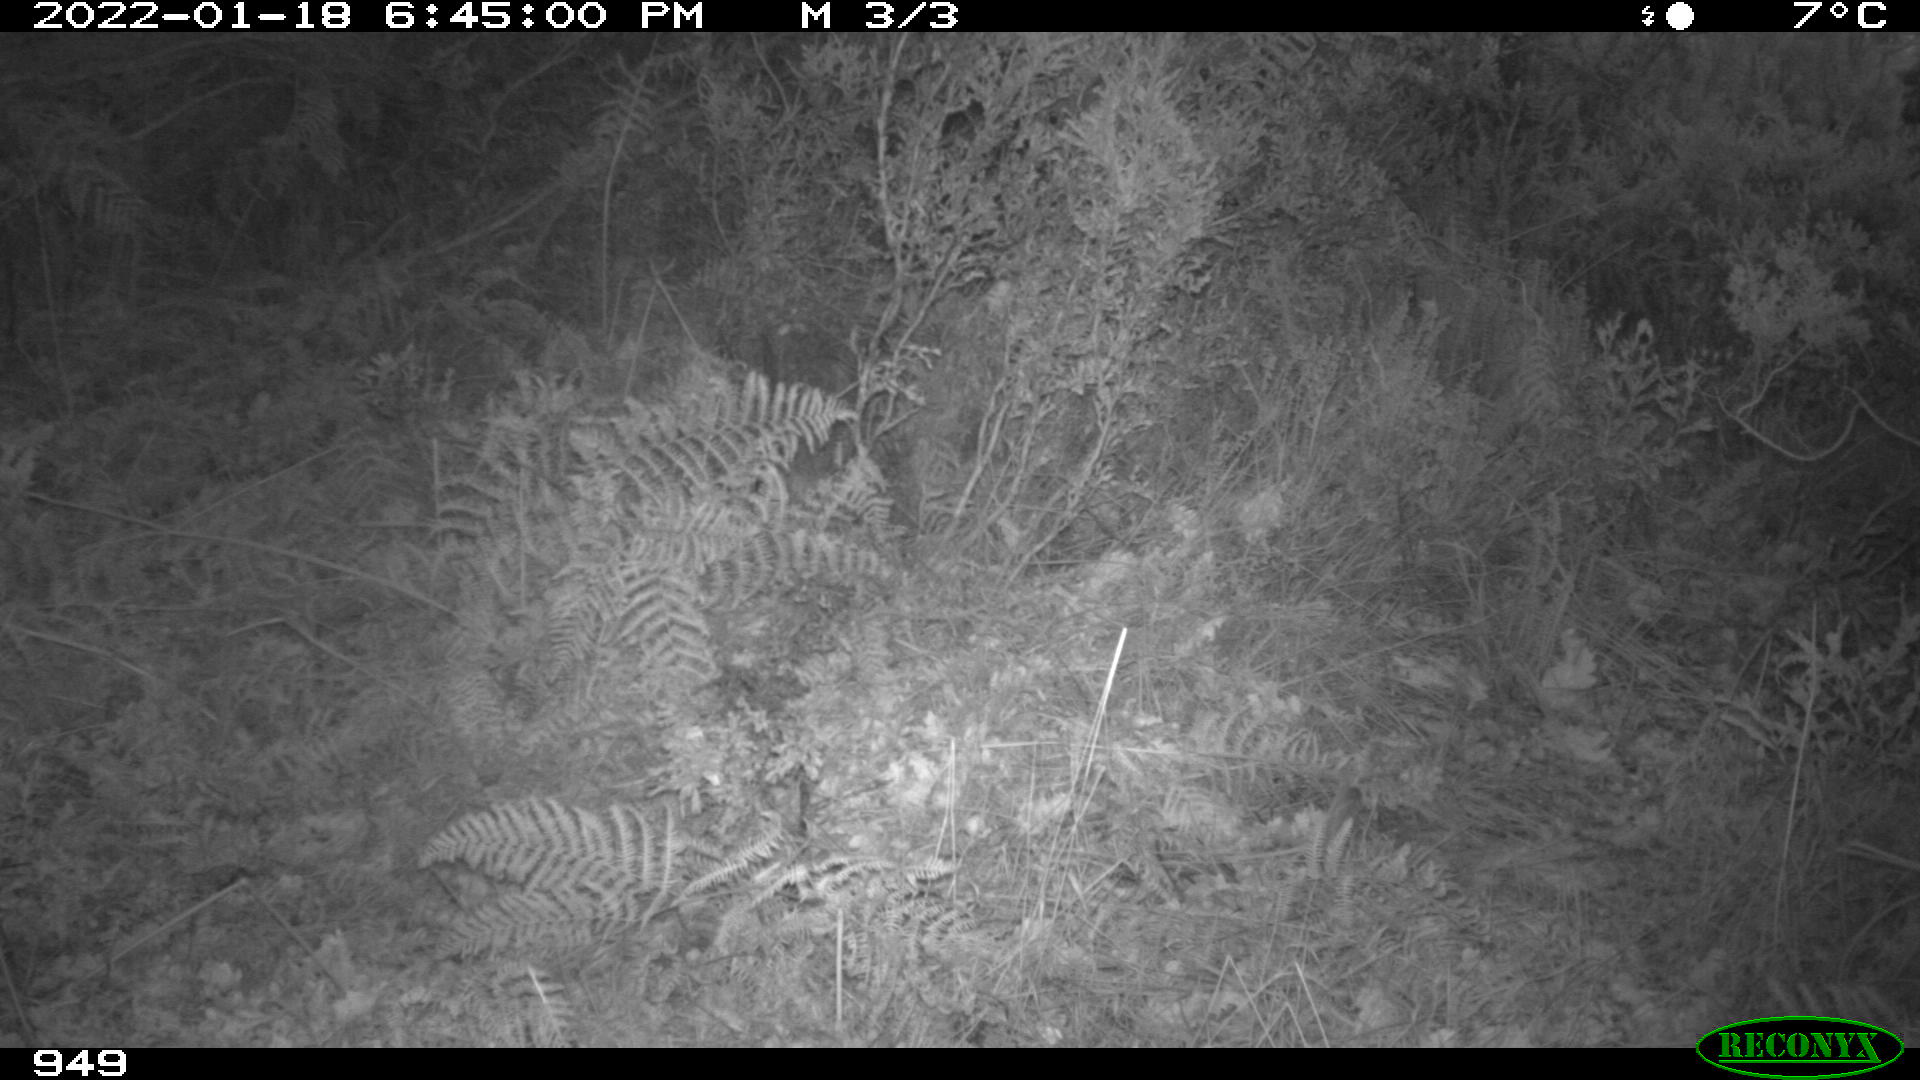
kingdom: Animalia
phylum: Chordata
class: Mammalia
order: Artiodactyla
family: Suidae
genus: Sus
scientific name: Sus scrofa
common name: Wild boar
